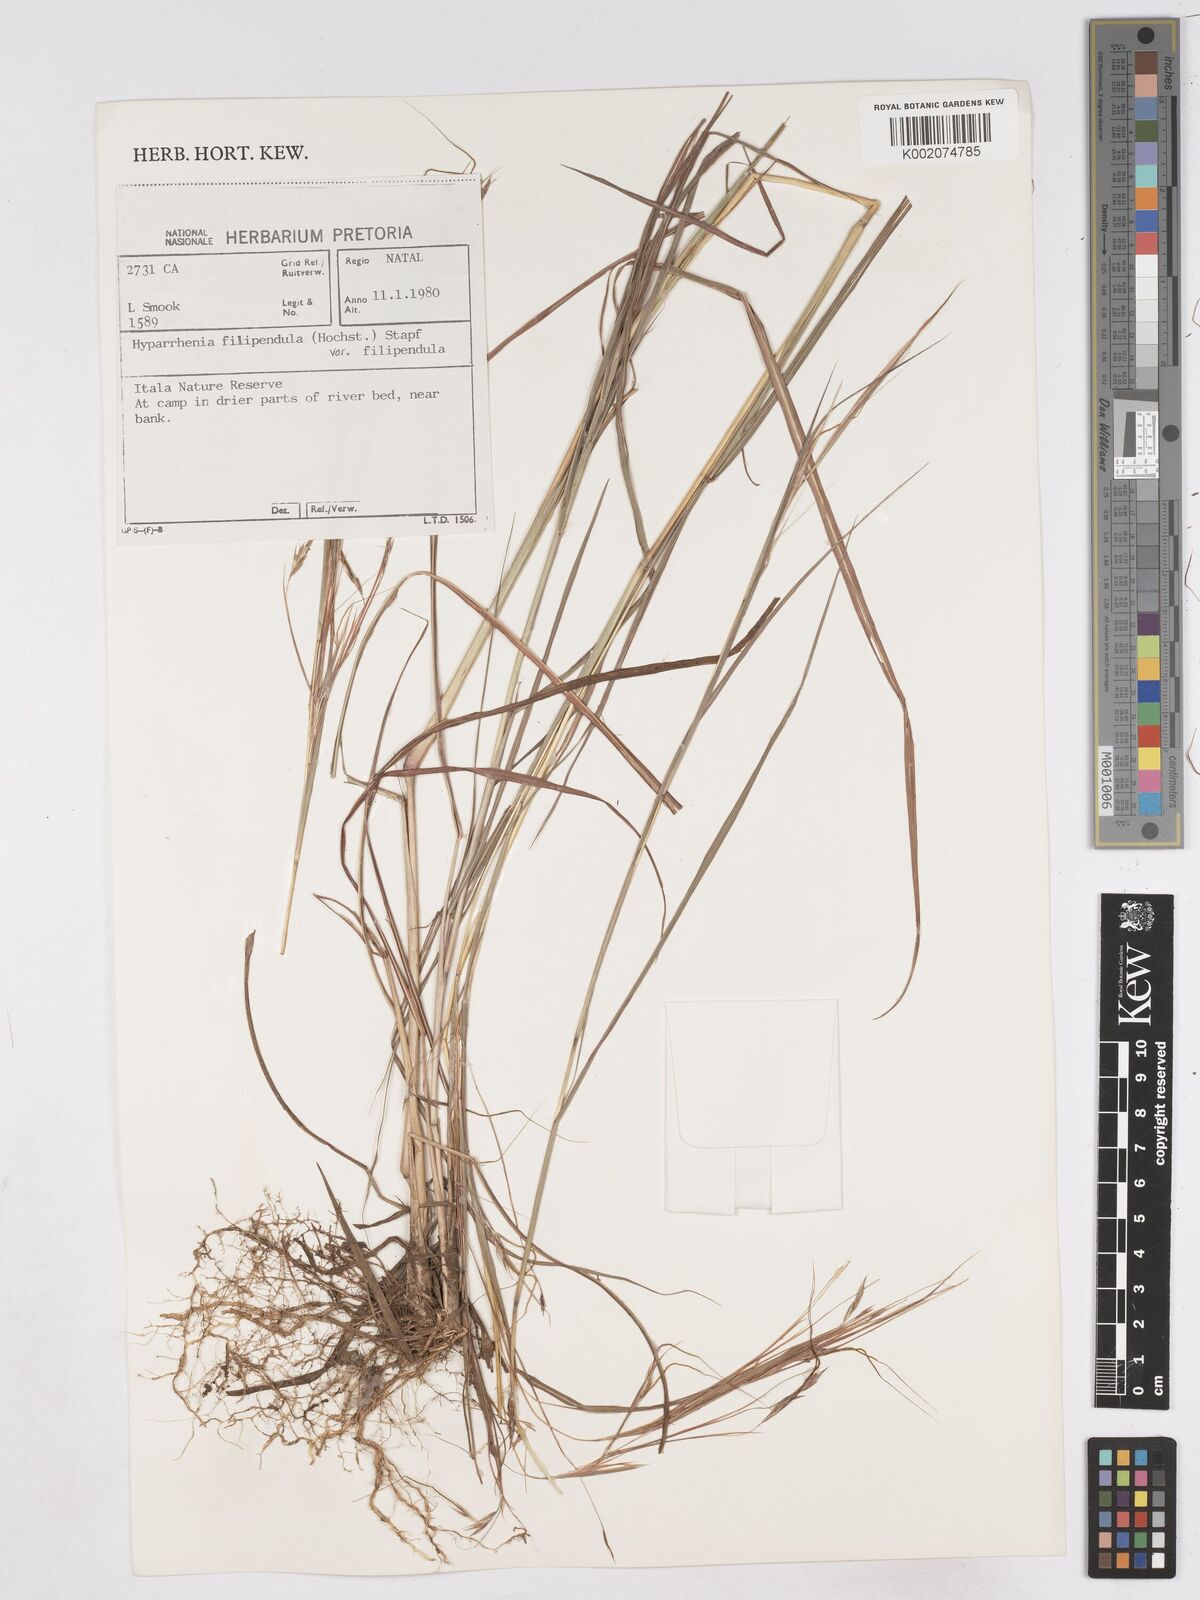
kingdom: Plantae
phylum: Tracheophyta
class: Liliopsida
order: Poales
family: Poaceae
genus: Hyparrhenia
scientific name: Hyparrhenia filipendula
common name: Tambookie grass
